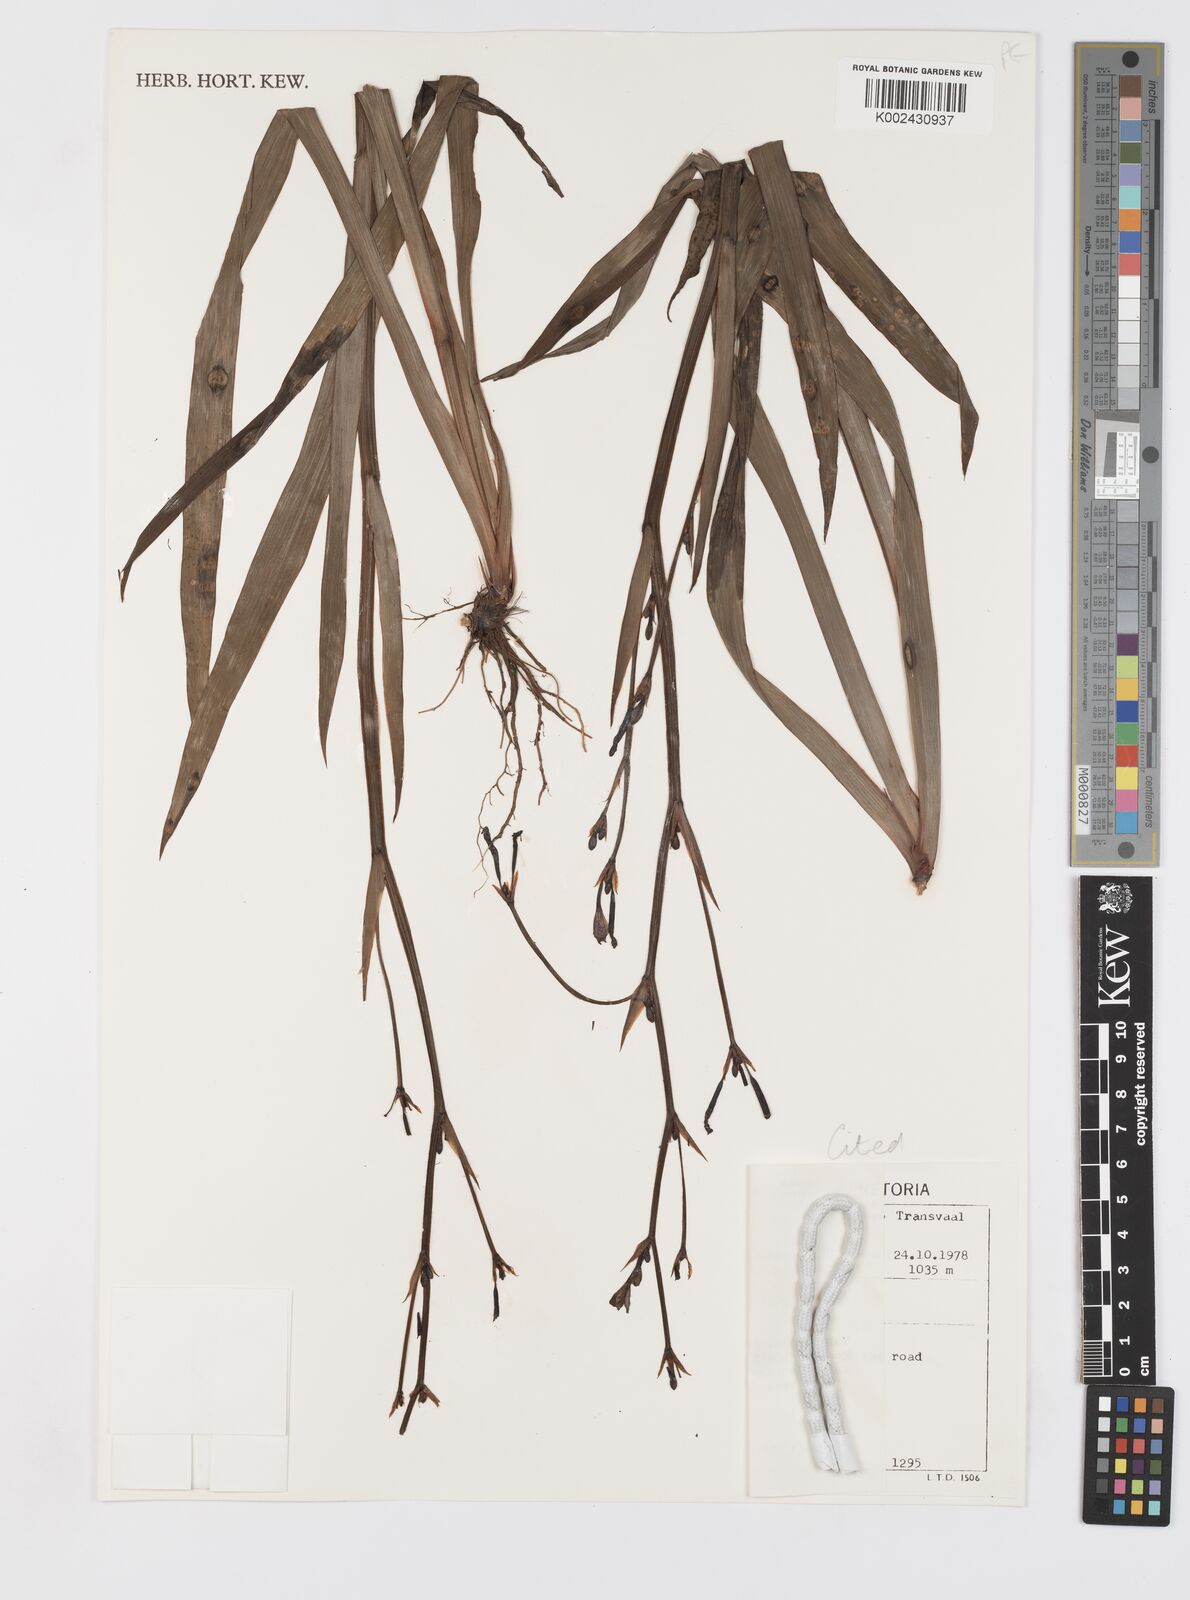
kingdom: Plantae
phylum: Tracheophyta
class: Liliopsida
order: Asparagales
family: Iridaceae
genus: Aristea
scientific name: Aristea ecklonii
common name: Blue corn-lily
